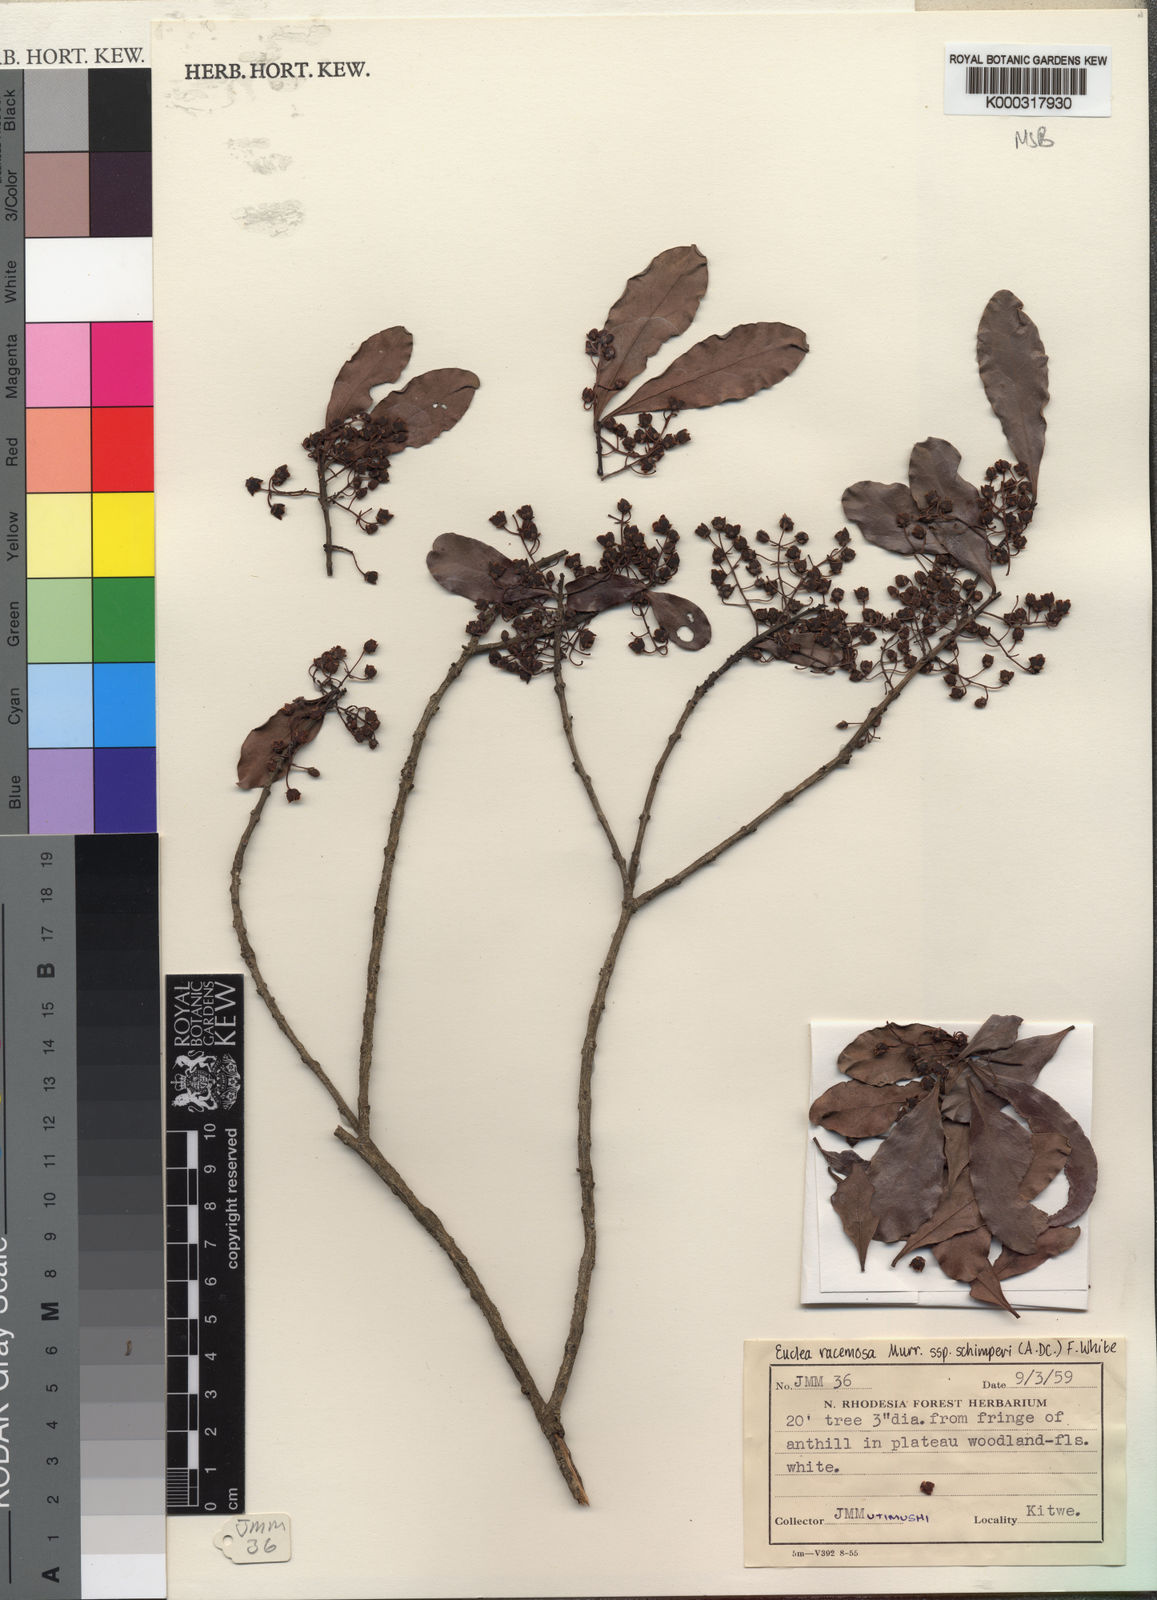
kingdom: Plantae
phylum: Tracheophyta
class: Magnoliopsida
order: Ericales
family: Ebenaceae
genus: Euclea
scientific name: Euclea racemosa
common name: Dune guarri
